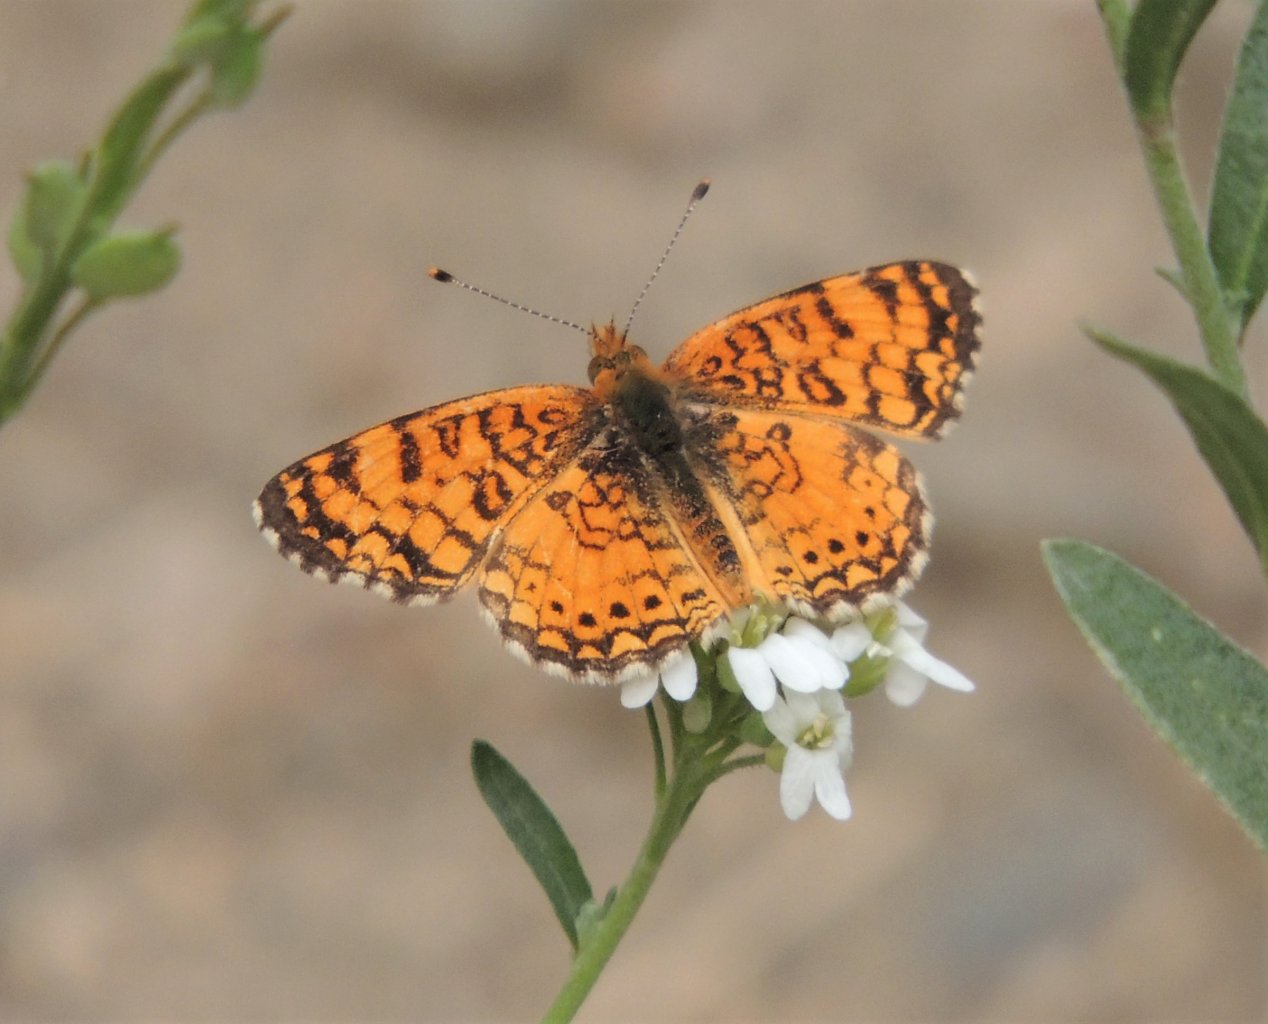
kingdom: Animalia
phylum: Arthropoda
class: Insecta
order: Lepidoptera
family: Nymphalidae
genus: Eresia
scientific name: Eresia aveyrona
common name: Mylitta Crescent
